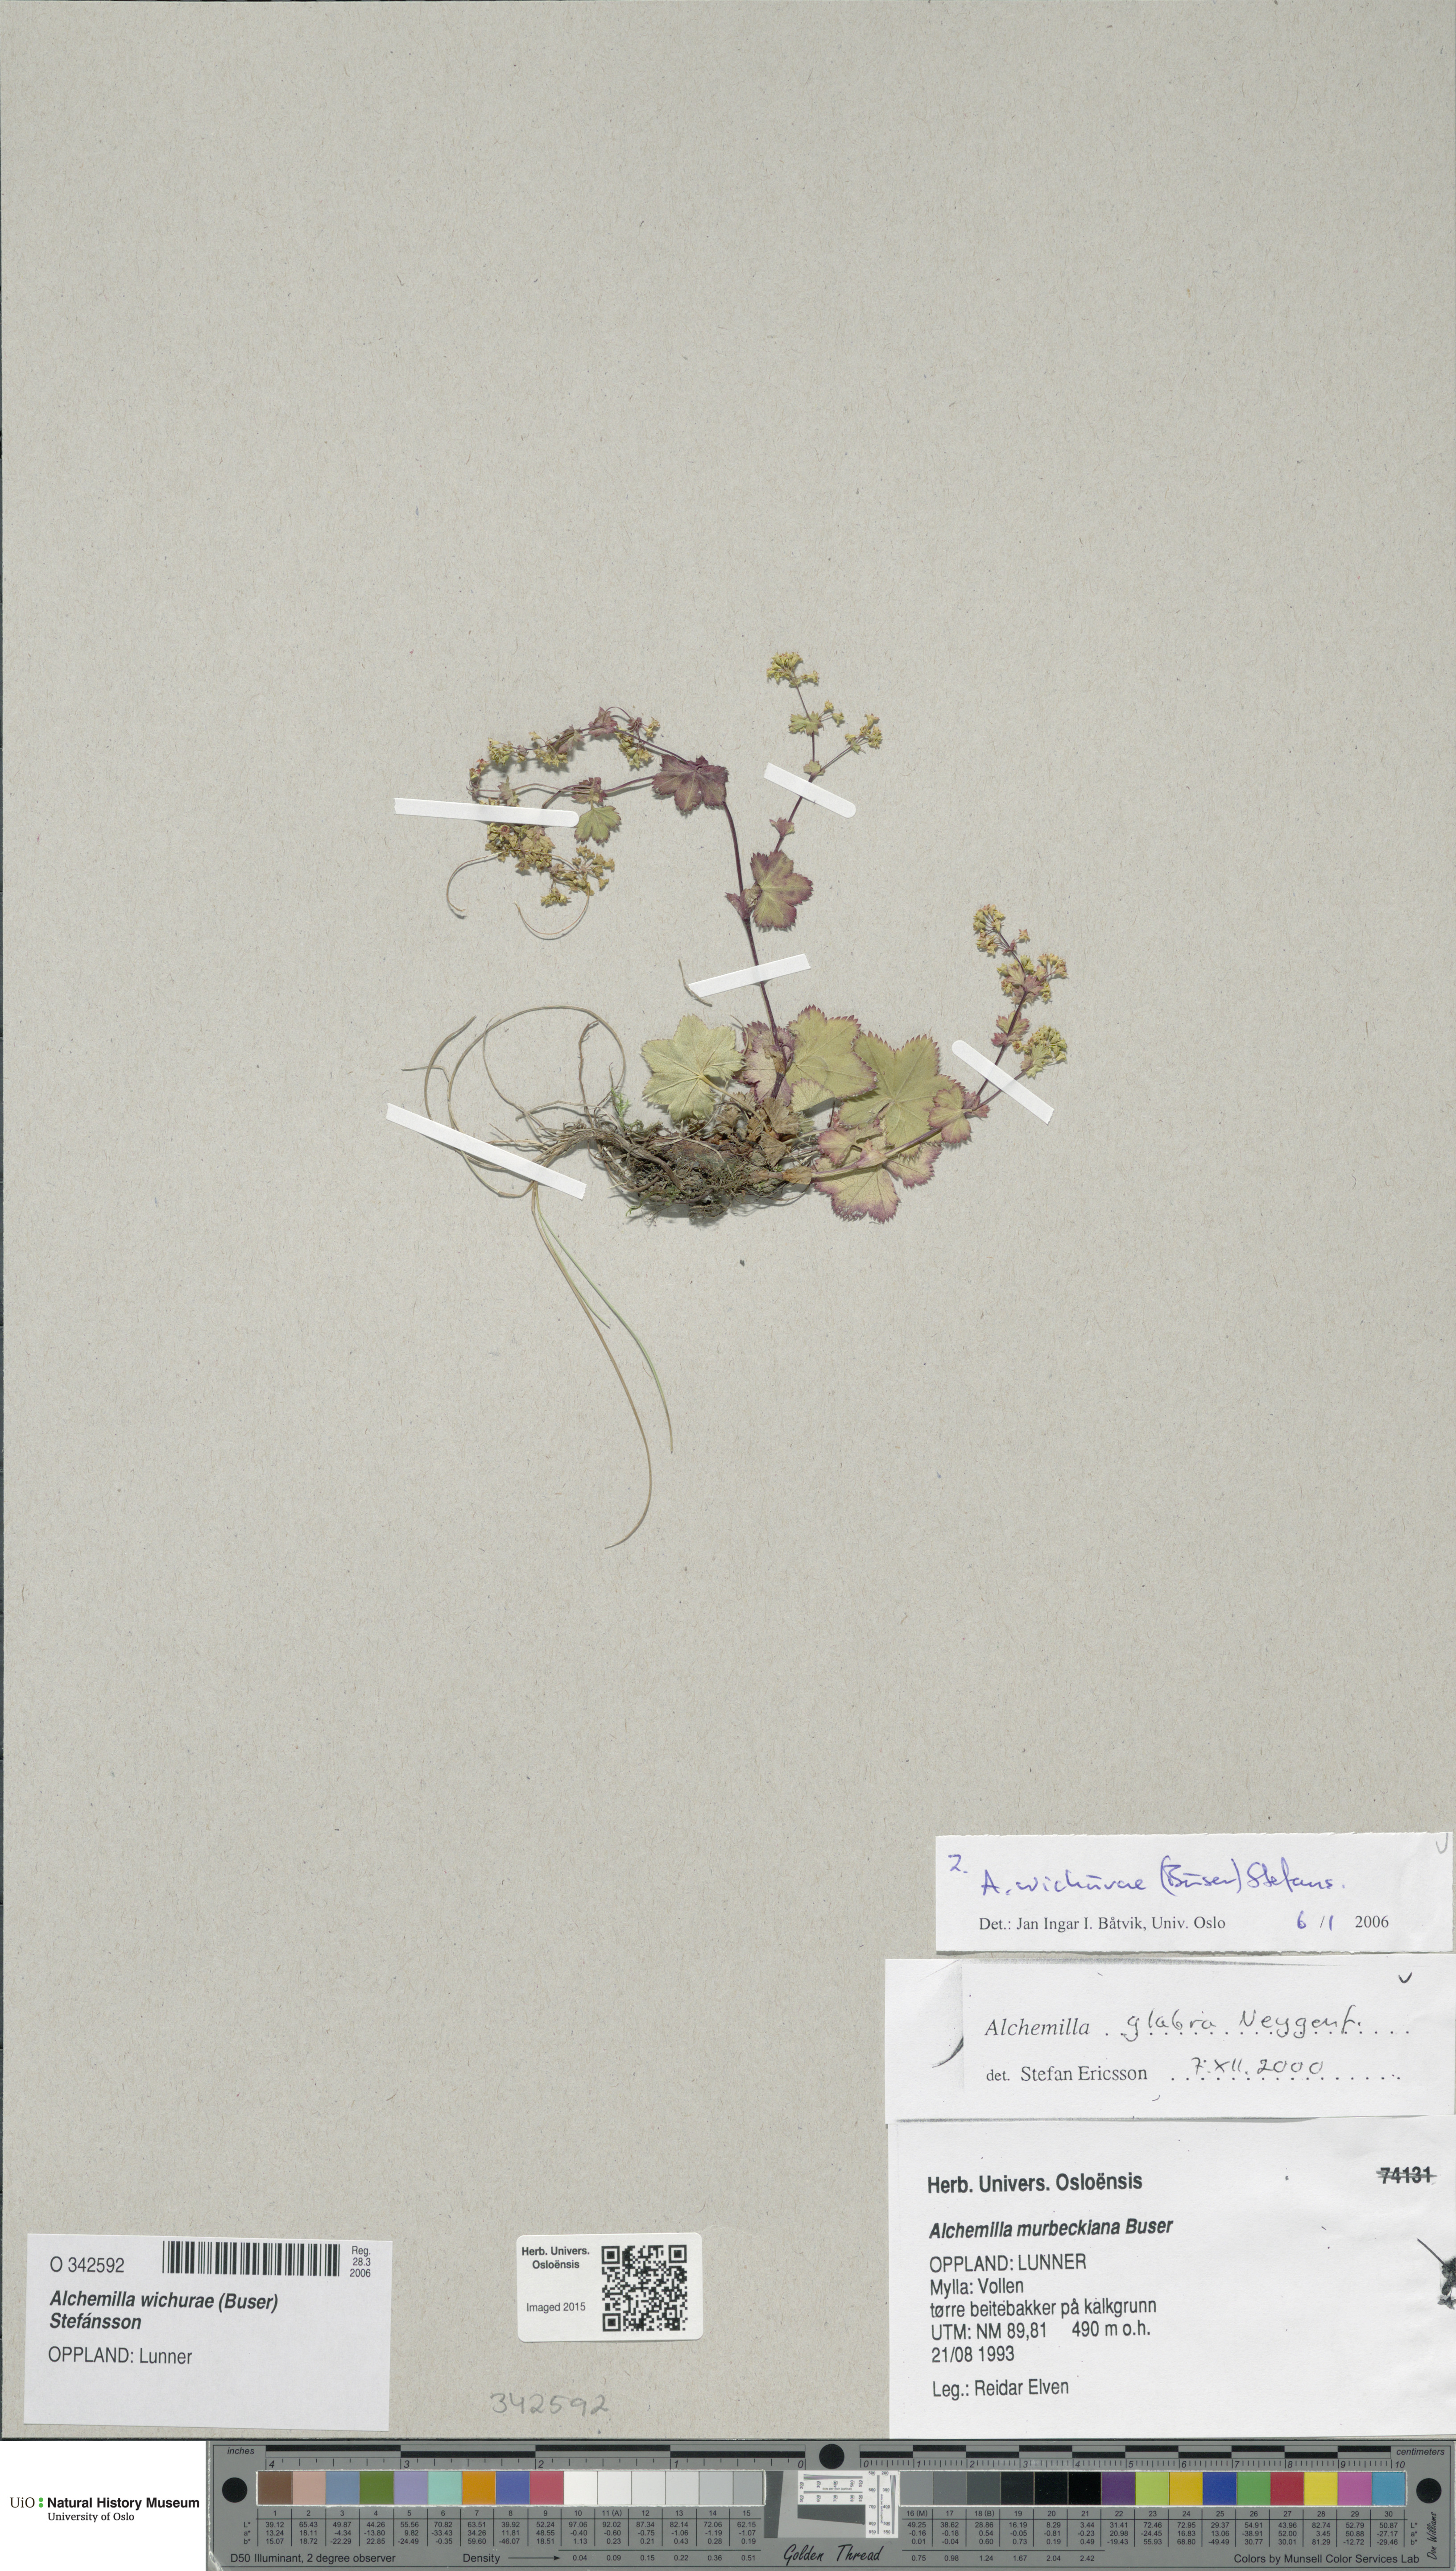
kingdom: Plantae
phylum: Tracheophyta
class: Magnoliopsida
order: Rosales
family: Rosaceae
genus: Alchemilla
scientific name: Alchemilla wichurae
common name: Rock lady's mantle
